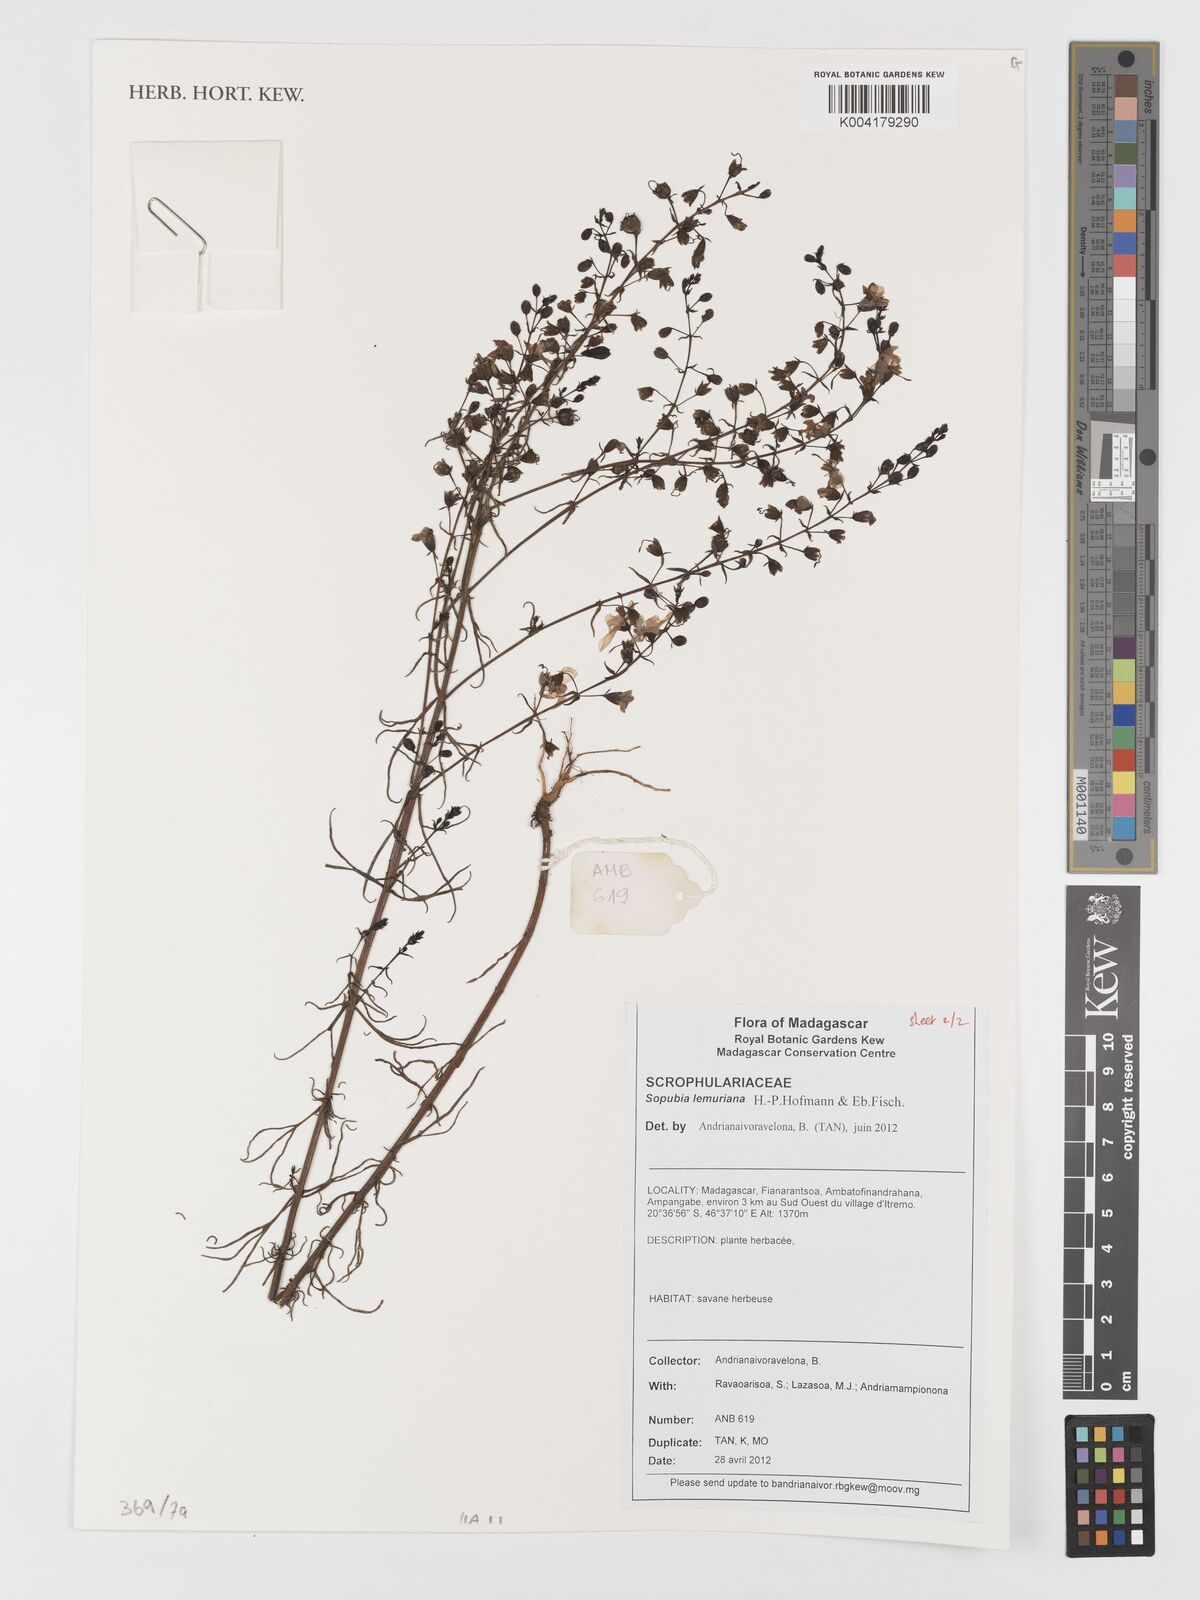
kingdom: Plantae
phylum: Tracheophyta
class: Magnoliopsida
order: Lamiales
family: Orobanchaceae
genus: Sopubia
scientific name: Sopubia lemuriana
